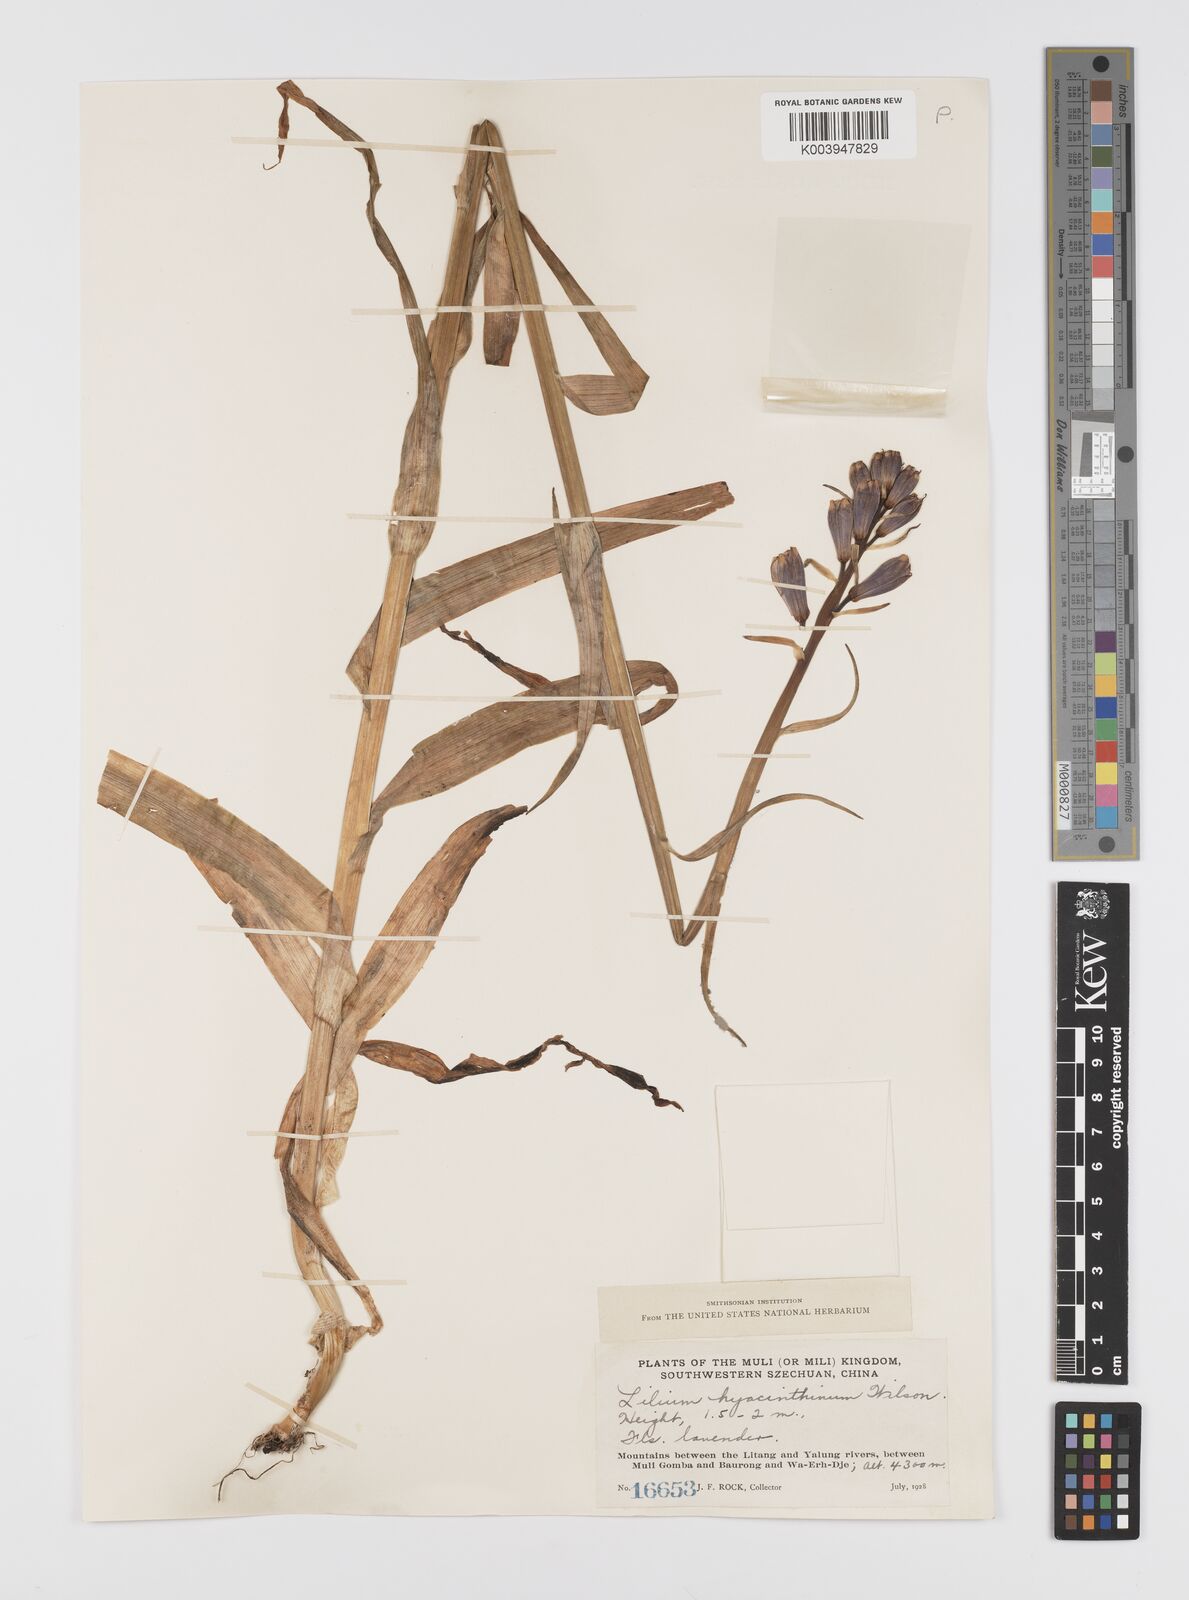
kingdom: Plantae
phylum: Tracheophyta
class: Liliopsida
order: Liliales
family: Liliaceae
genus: Notholirion
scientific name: Notholirion bulbuliferum
